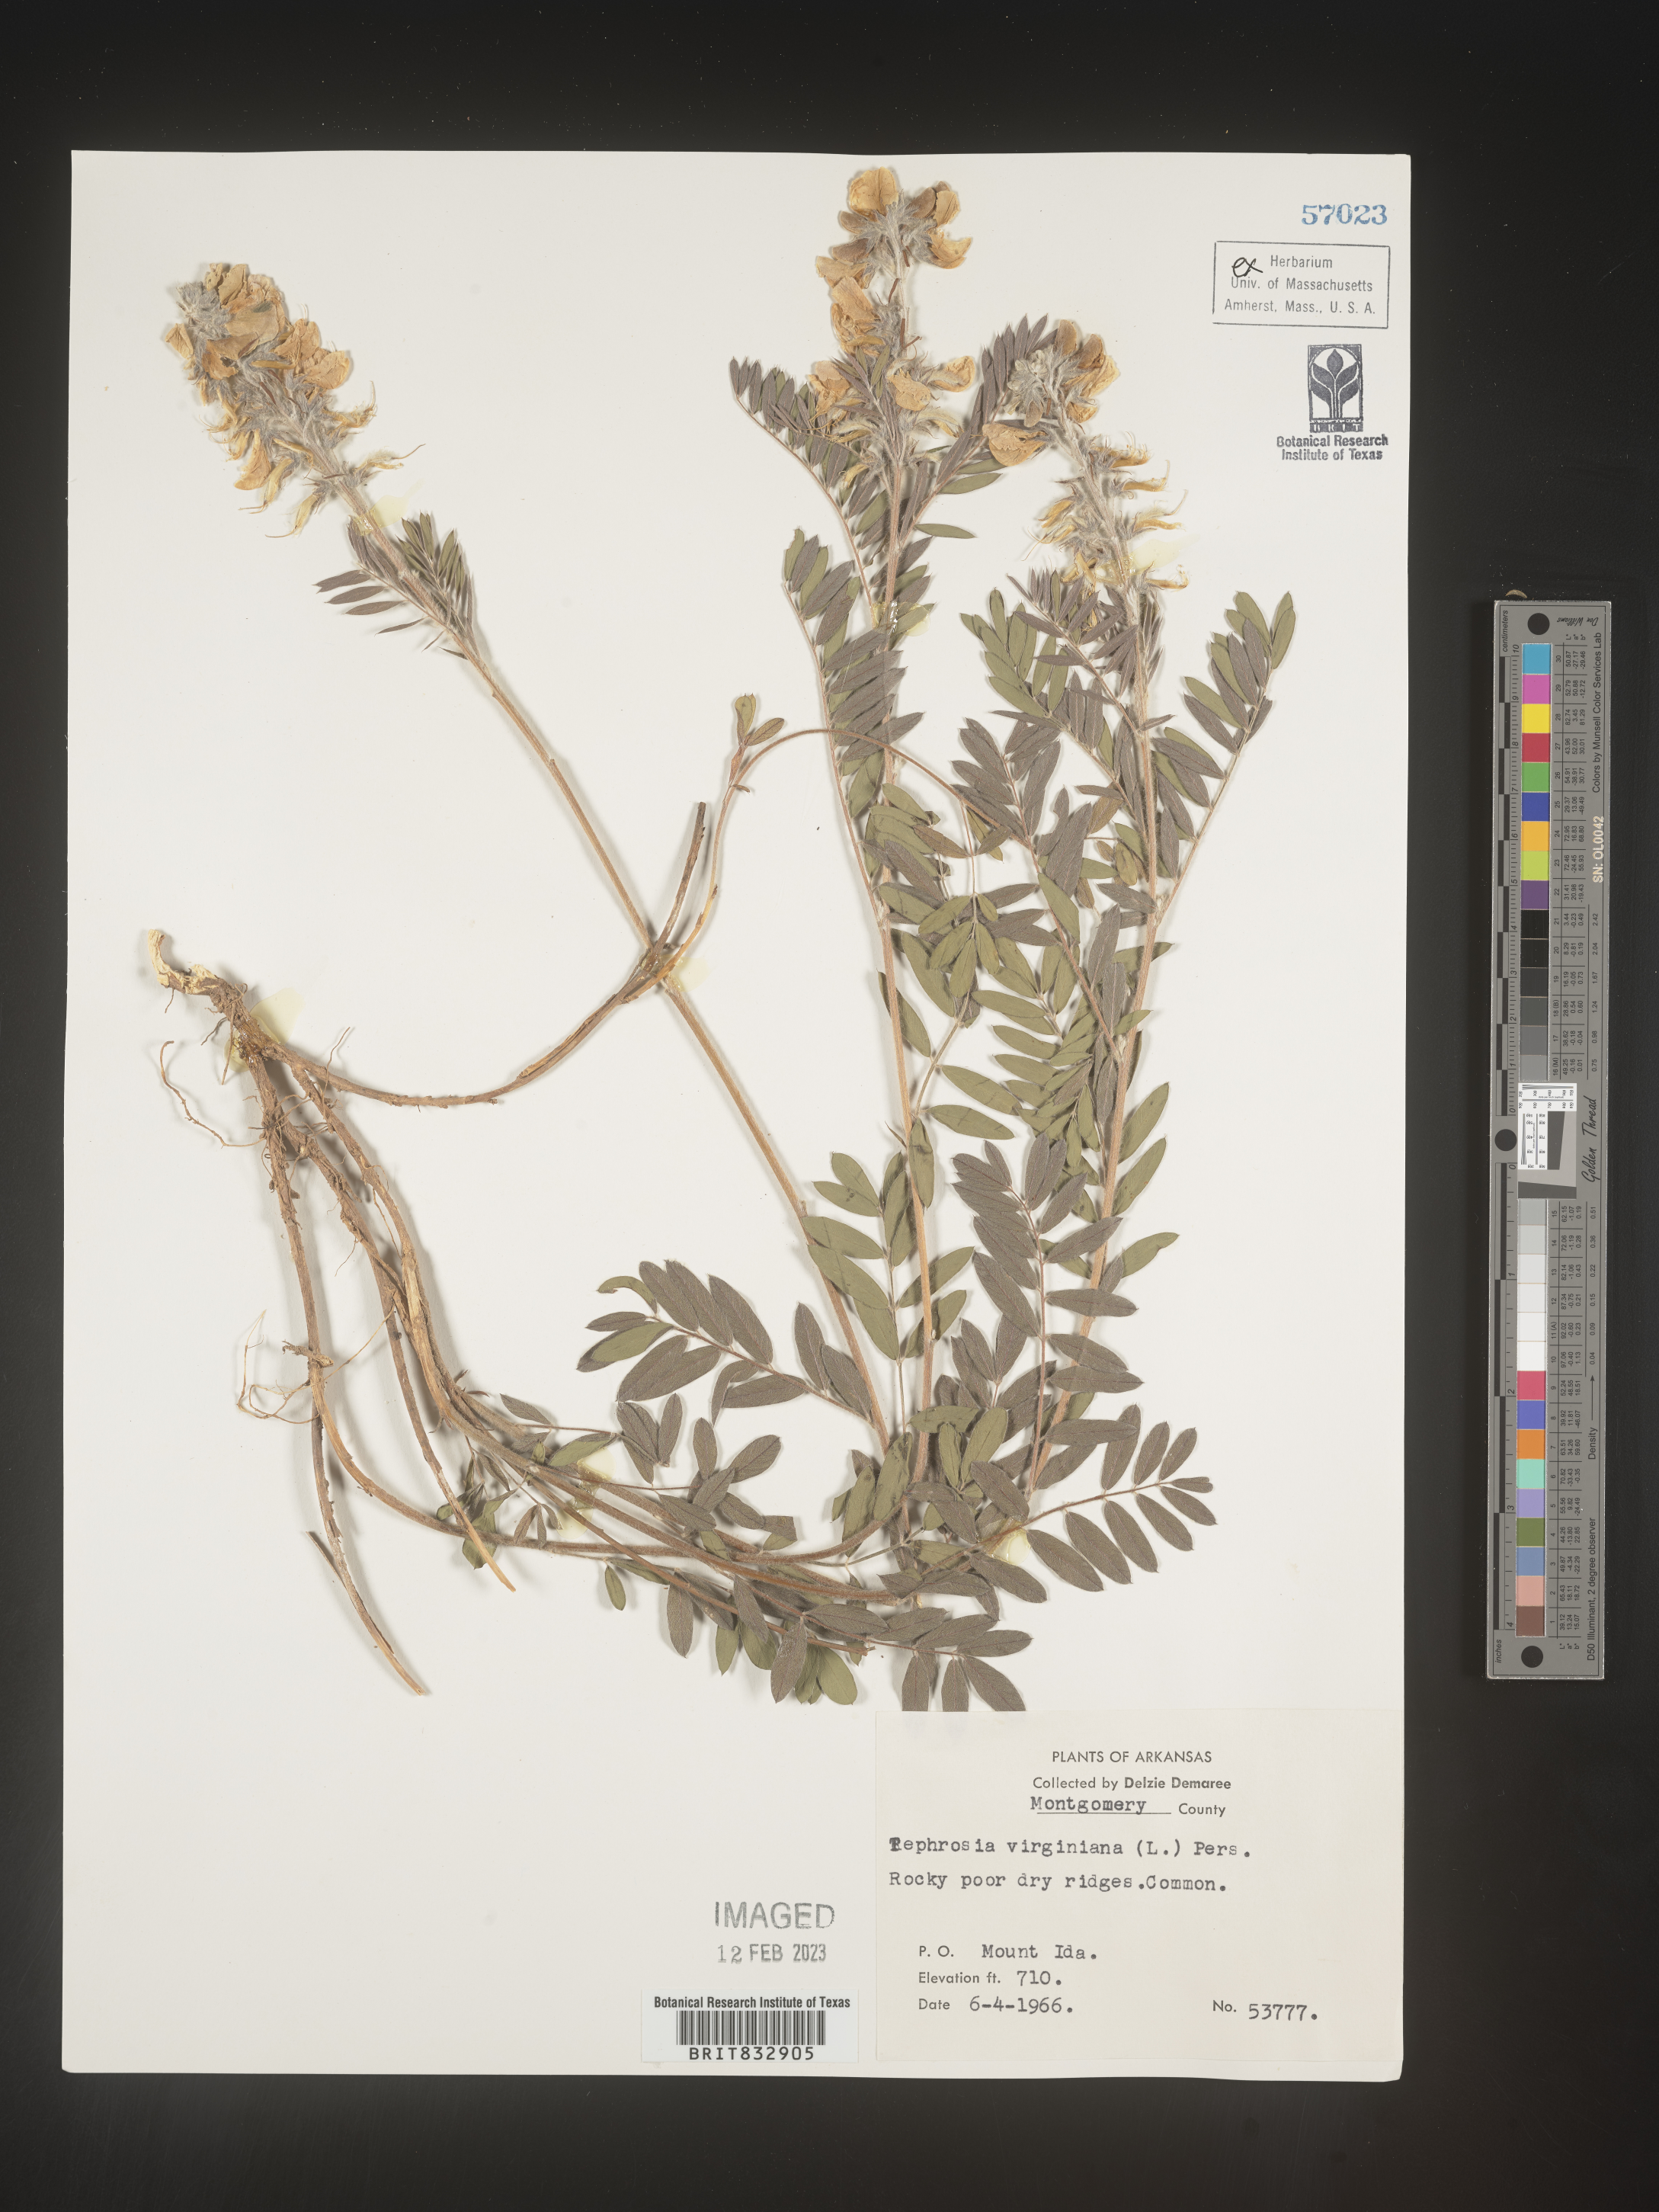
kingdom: Plantae
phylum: Tracheophyta
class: Magnoliopsida
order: Fabales
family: Fabaceae
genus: Tephrosia
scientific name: Tephrosia virginiana
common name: Rabbit-pea
